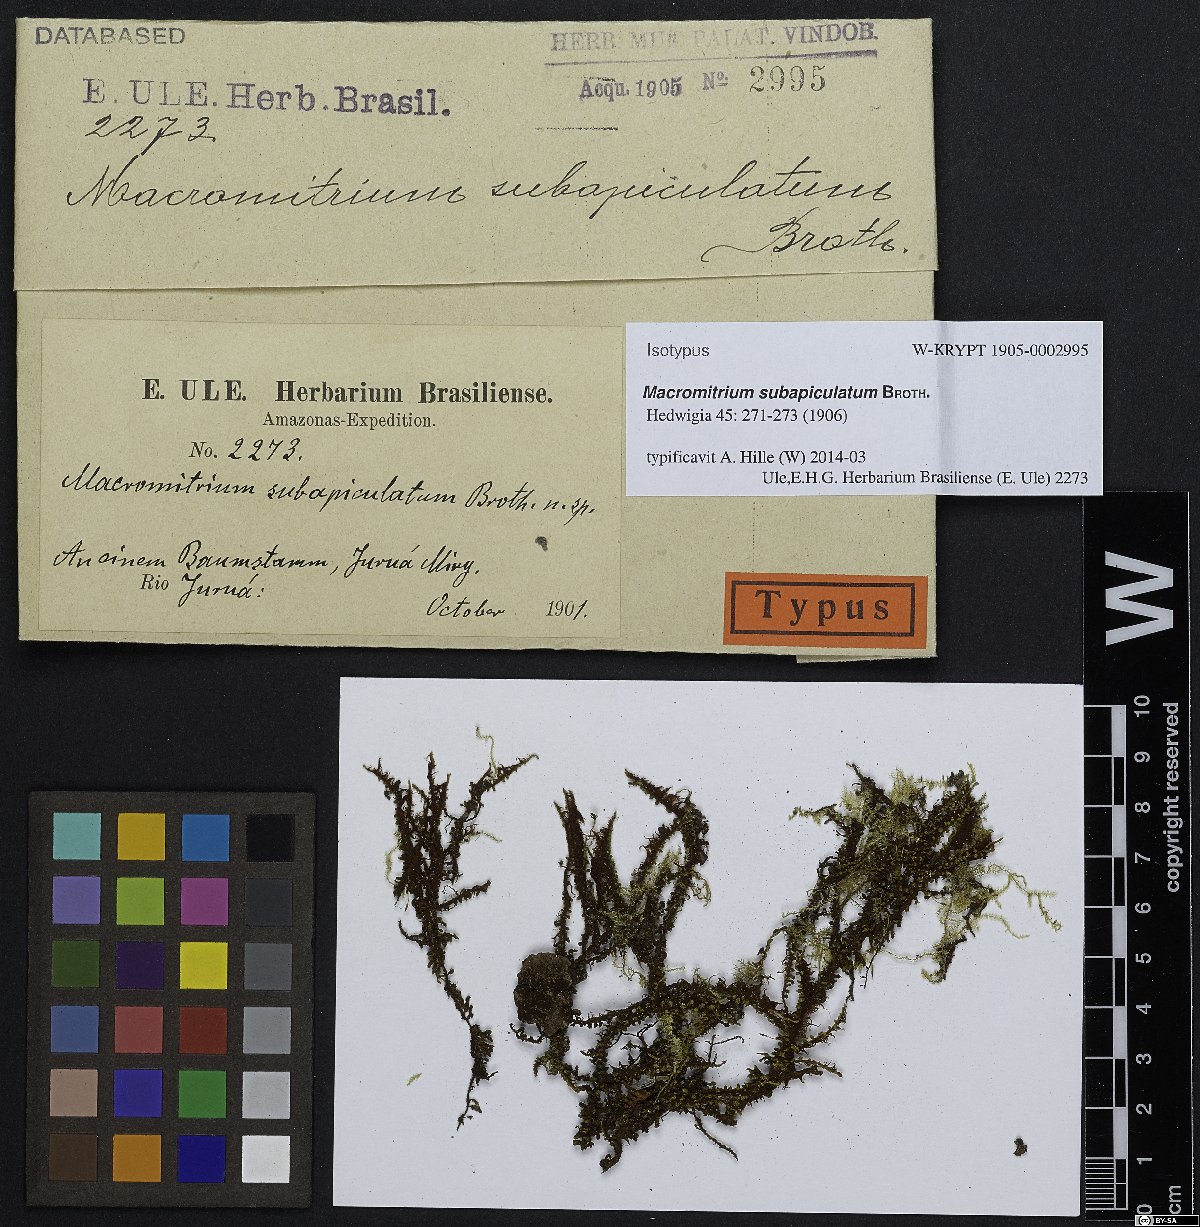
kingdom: Plantae
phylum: Bryophyta
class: Bryopsida
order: Orthotrichales
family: Orthotrichaceae
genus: Groutiella
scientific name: Groutiella tumidula
